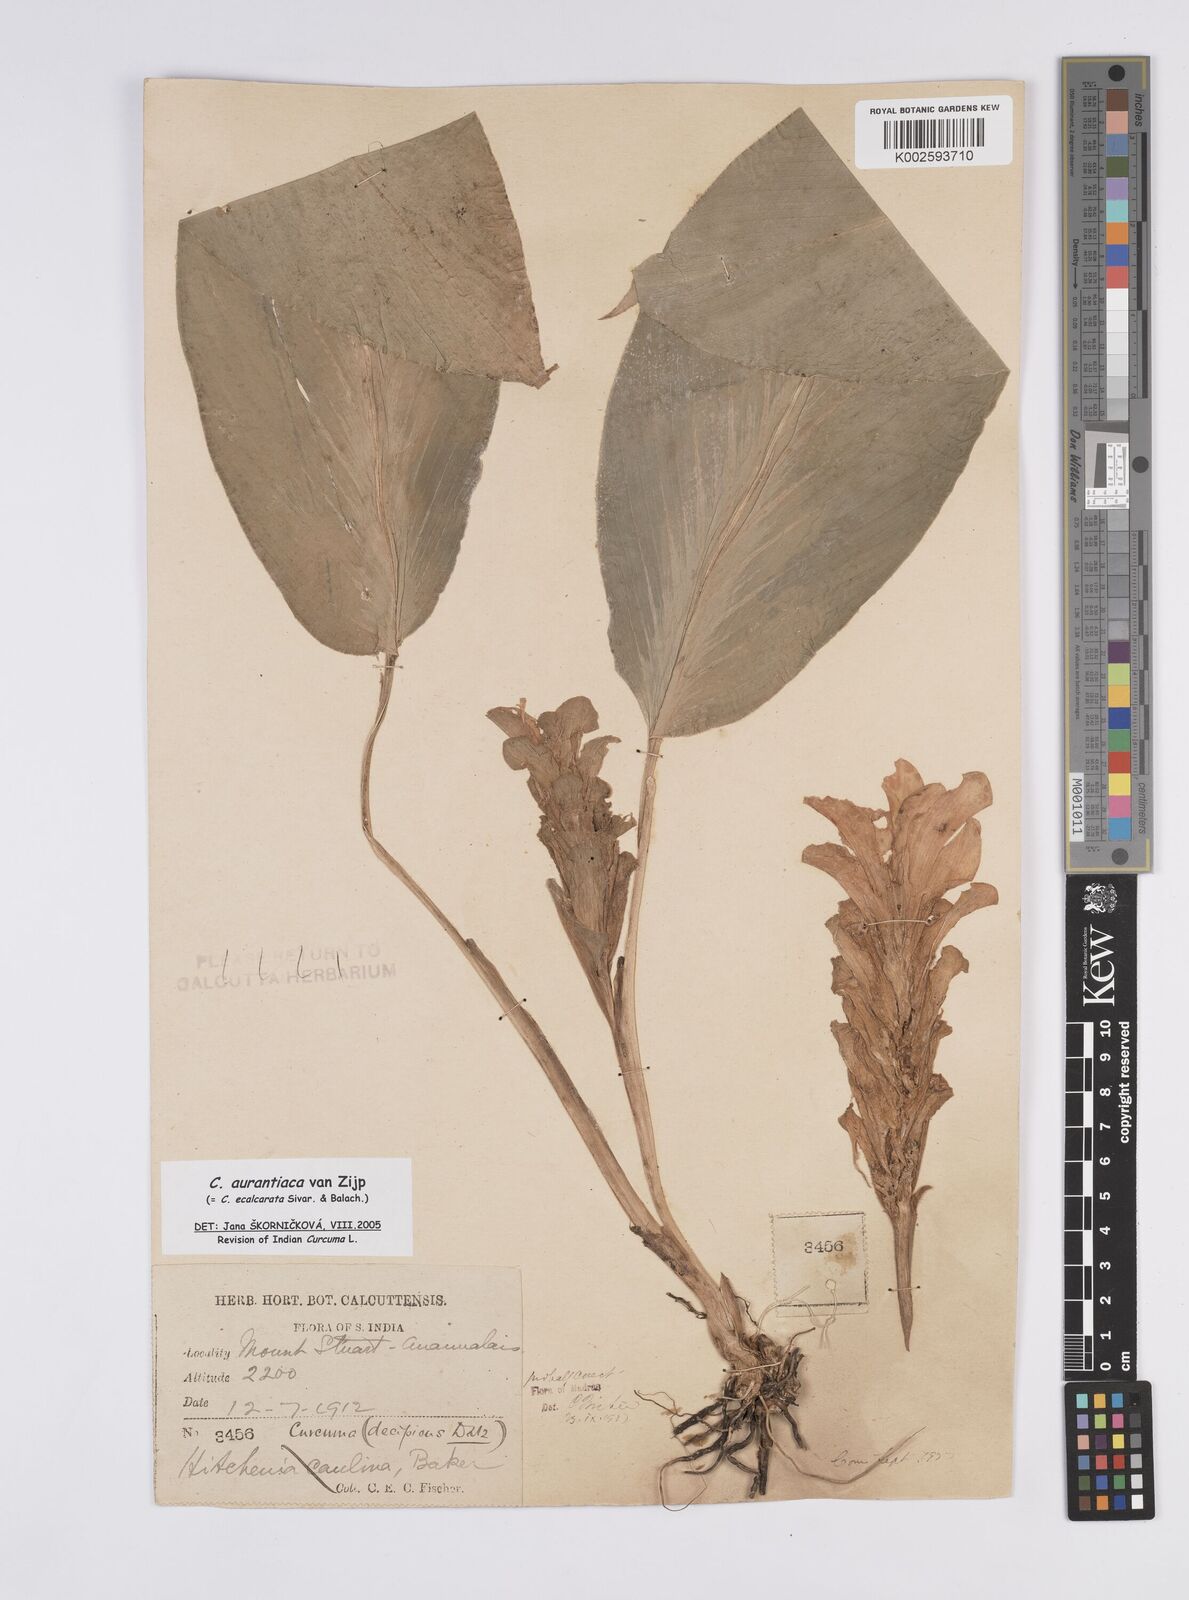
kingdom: Plantae
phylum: Tracheophyta
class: Liliopsida
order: Zingiberales
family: Zingiberaceae
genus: Curcuma
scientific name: Curcuma aurantiaca
